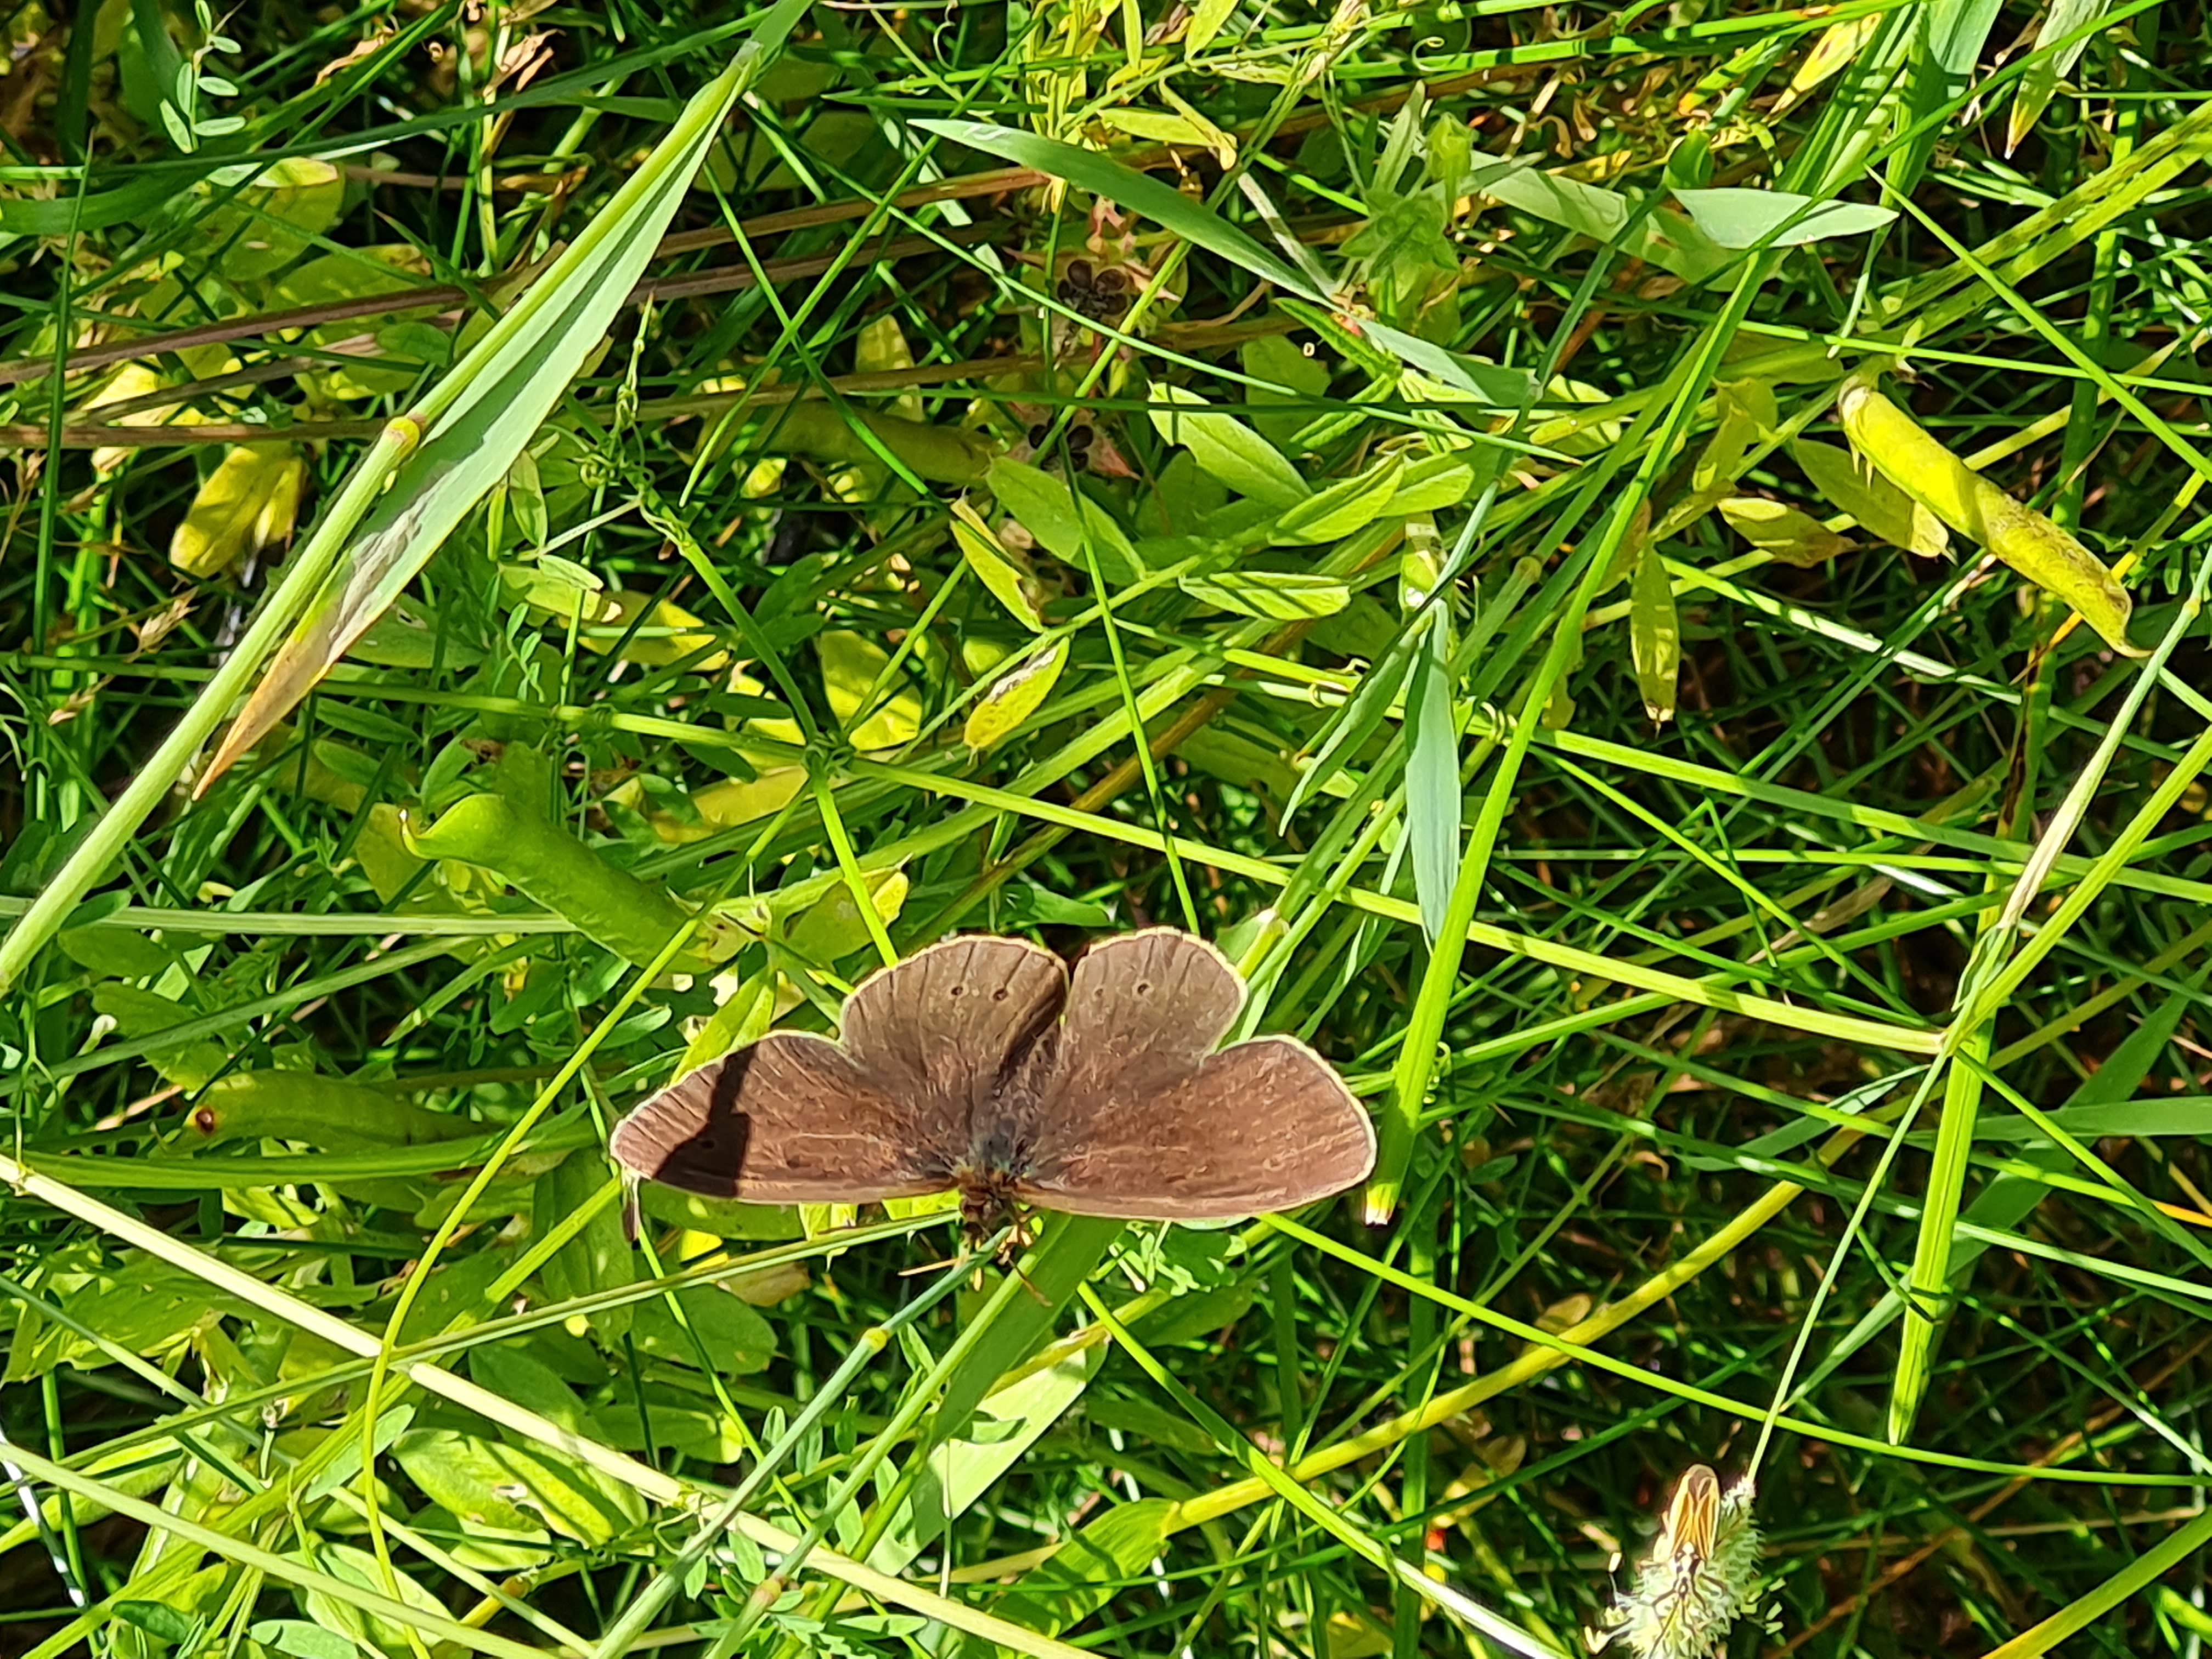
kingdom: Animalia
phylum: Arthropoda
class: Insecta
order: Lepidoptera
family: Nymphalidae
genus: Aphantopus
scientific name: Aphantopus hyperantus
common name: Engrandøje
